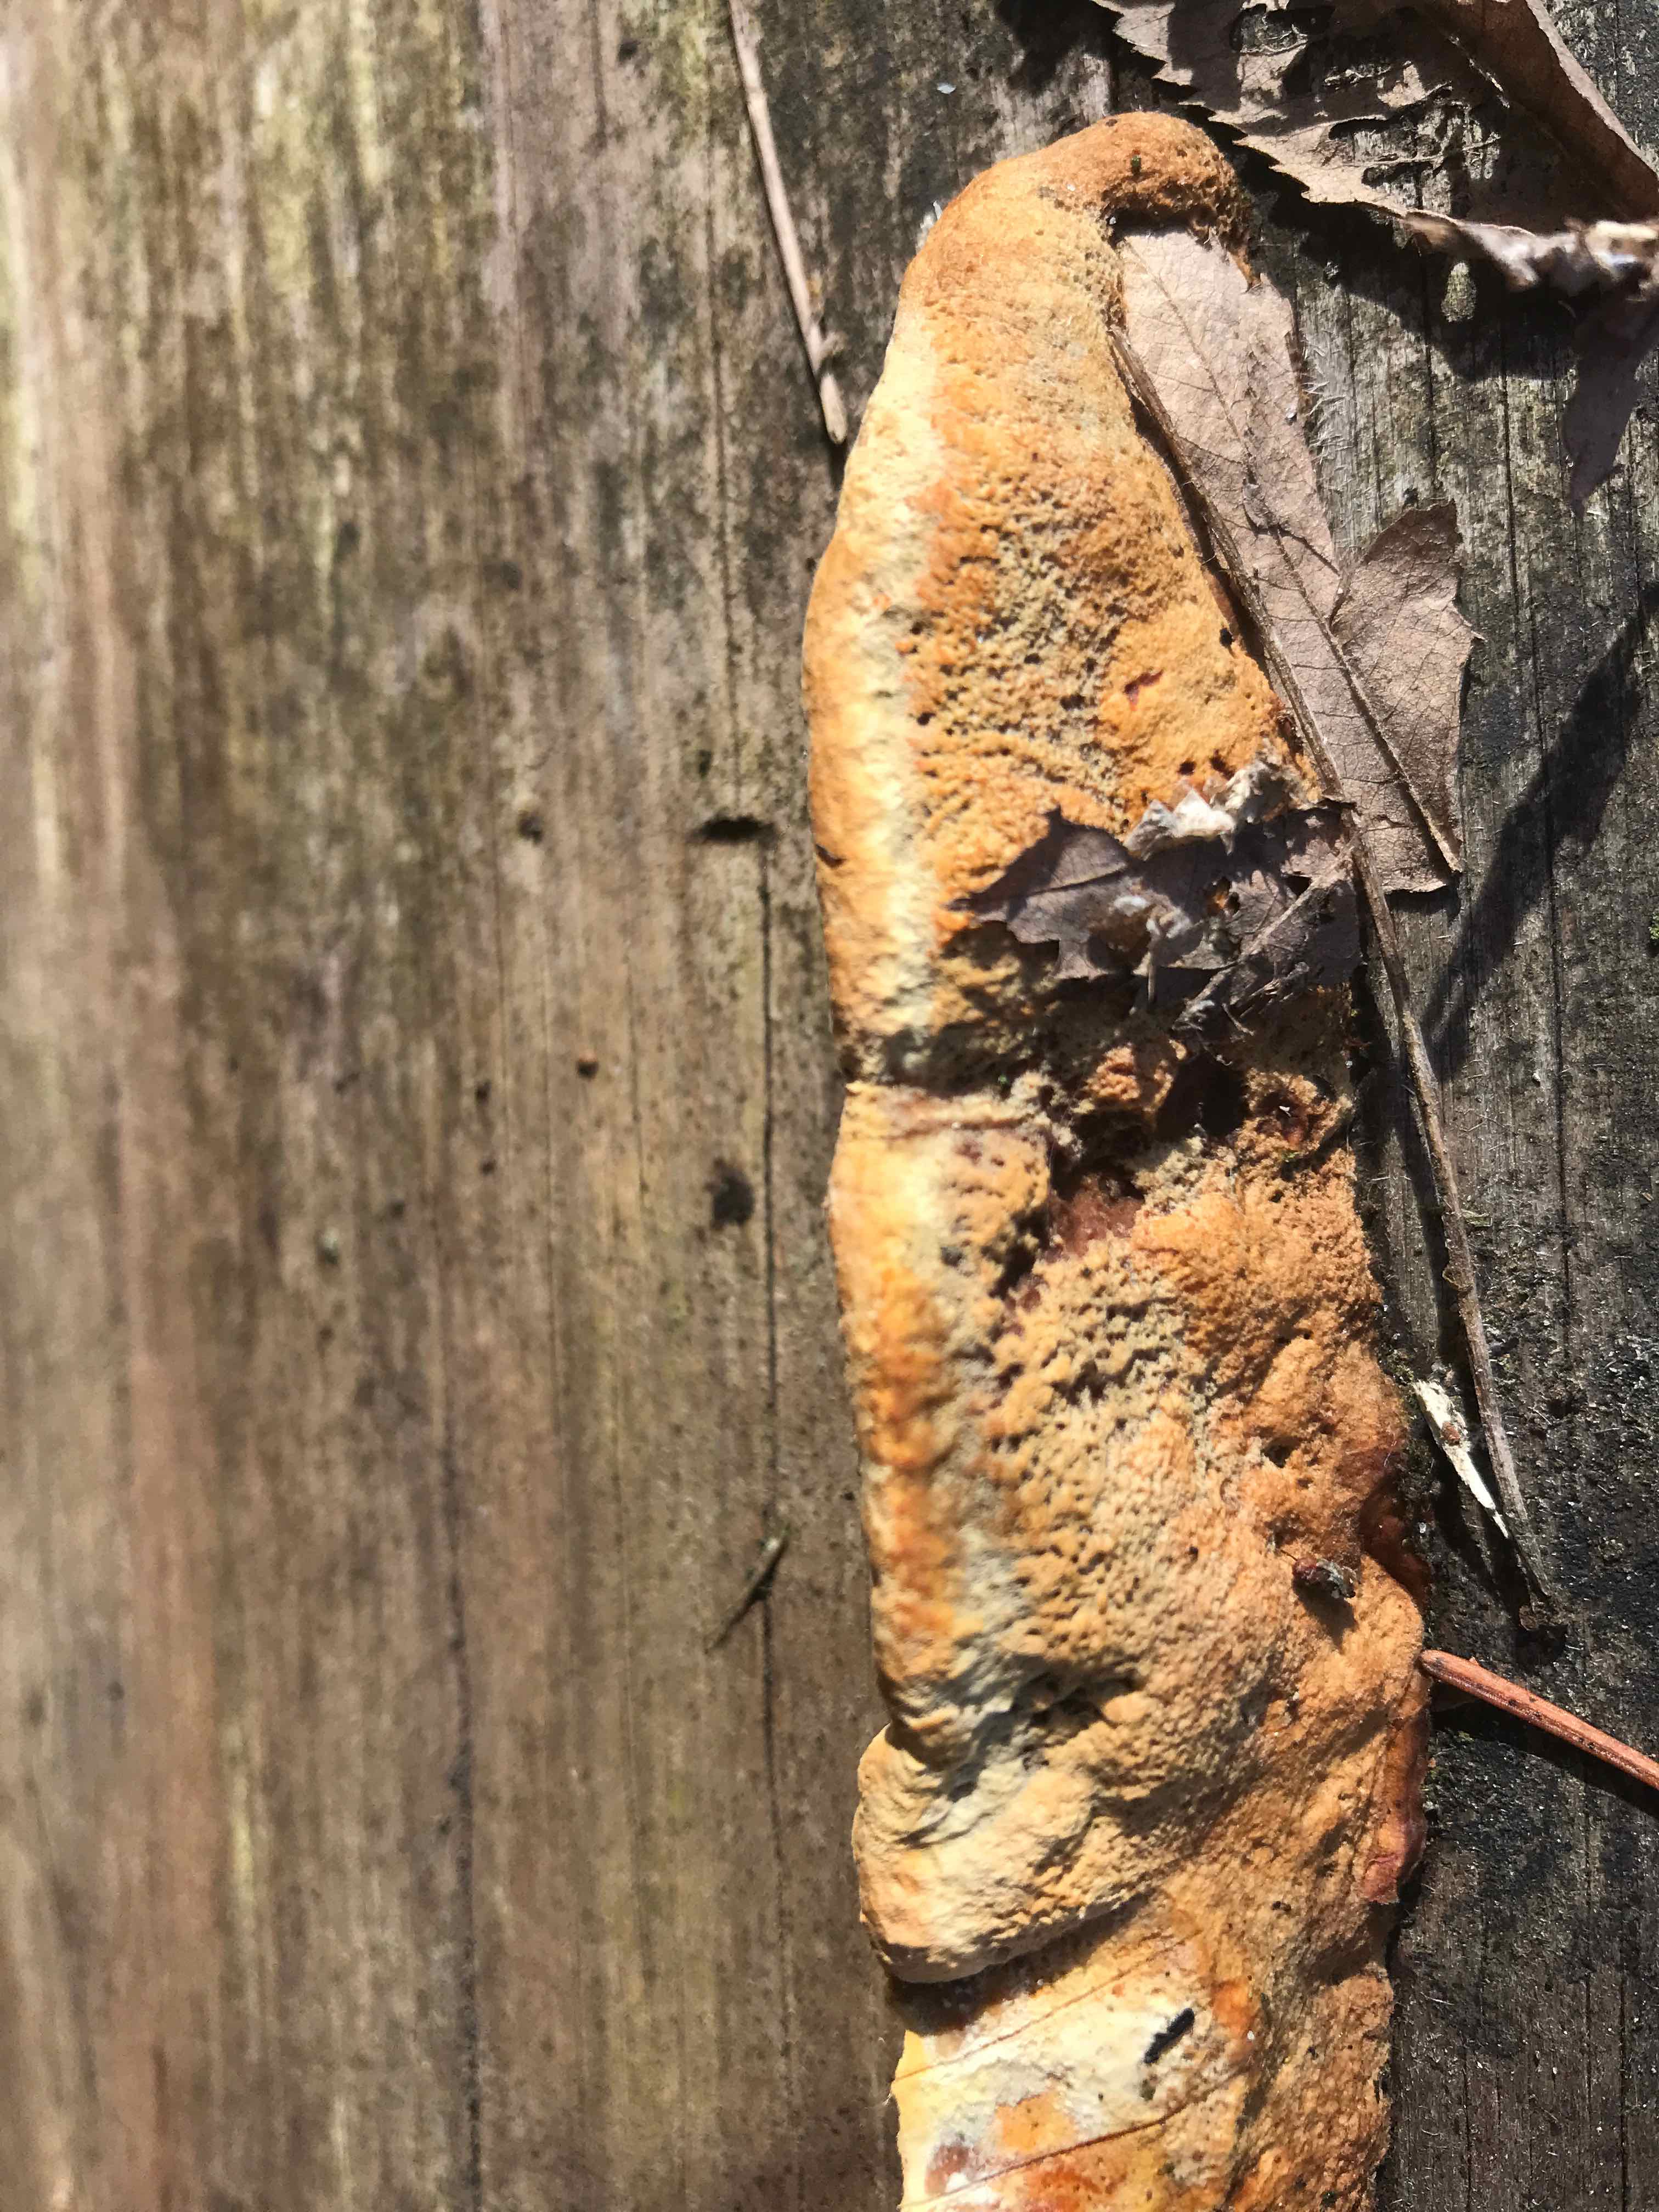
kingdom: Fungi
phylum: Basidiomycota
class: Agaricomycetes
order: Gloeophyllales
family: Gloeophyllaceae
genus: Gloeophyllum
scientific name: Gloeophyllum odoratum
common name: duftende korkhat
